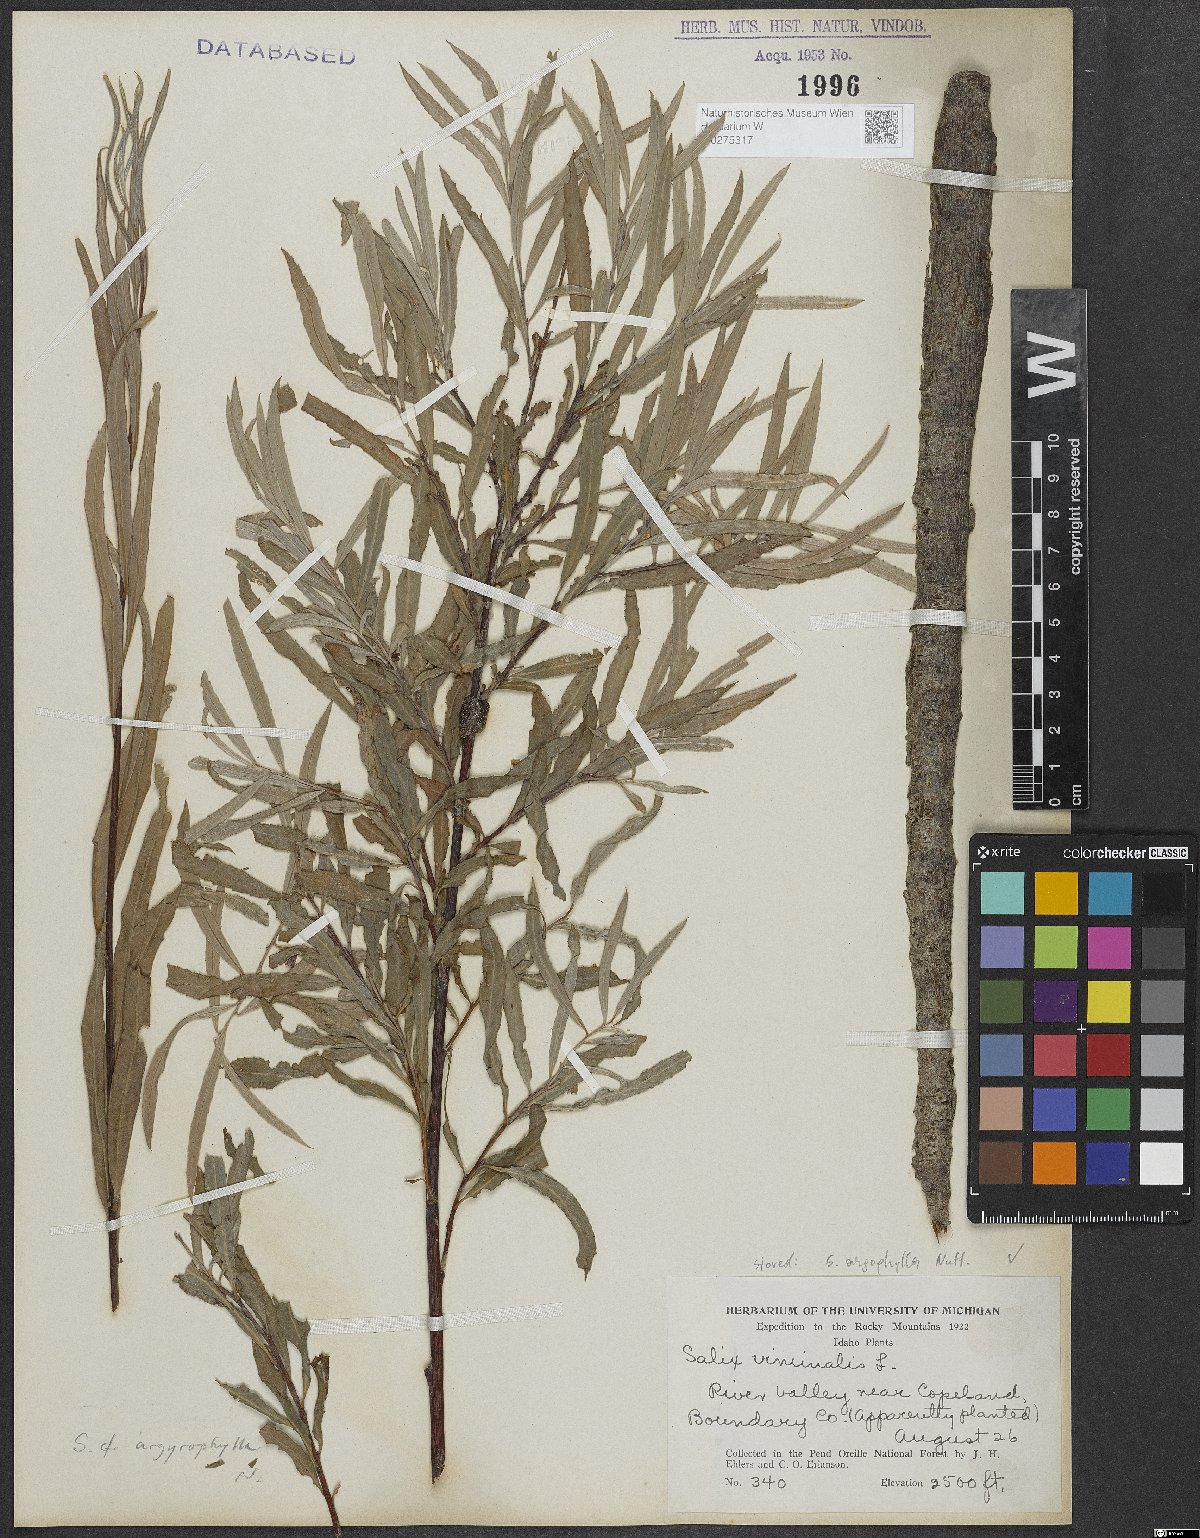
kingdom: Plantae
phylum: Tracheophyta
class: Magnoliopsida
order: Malpighiales
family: Salicaceae
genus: Salix
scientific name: Salix exigua
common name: Coyote willow
